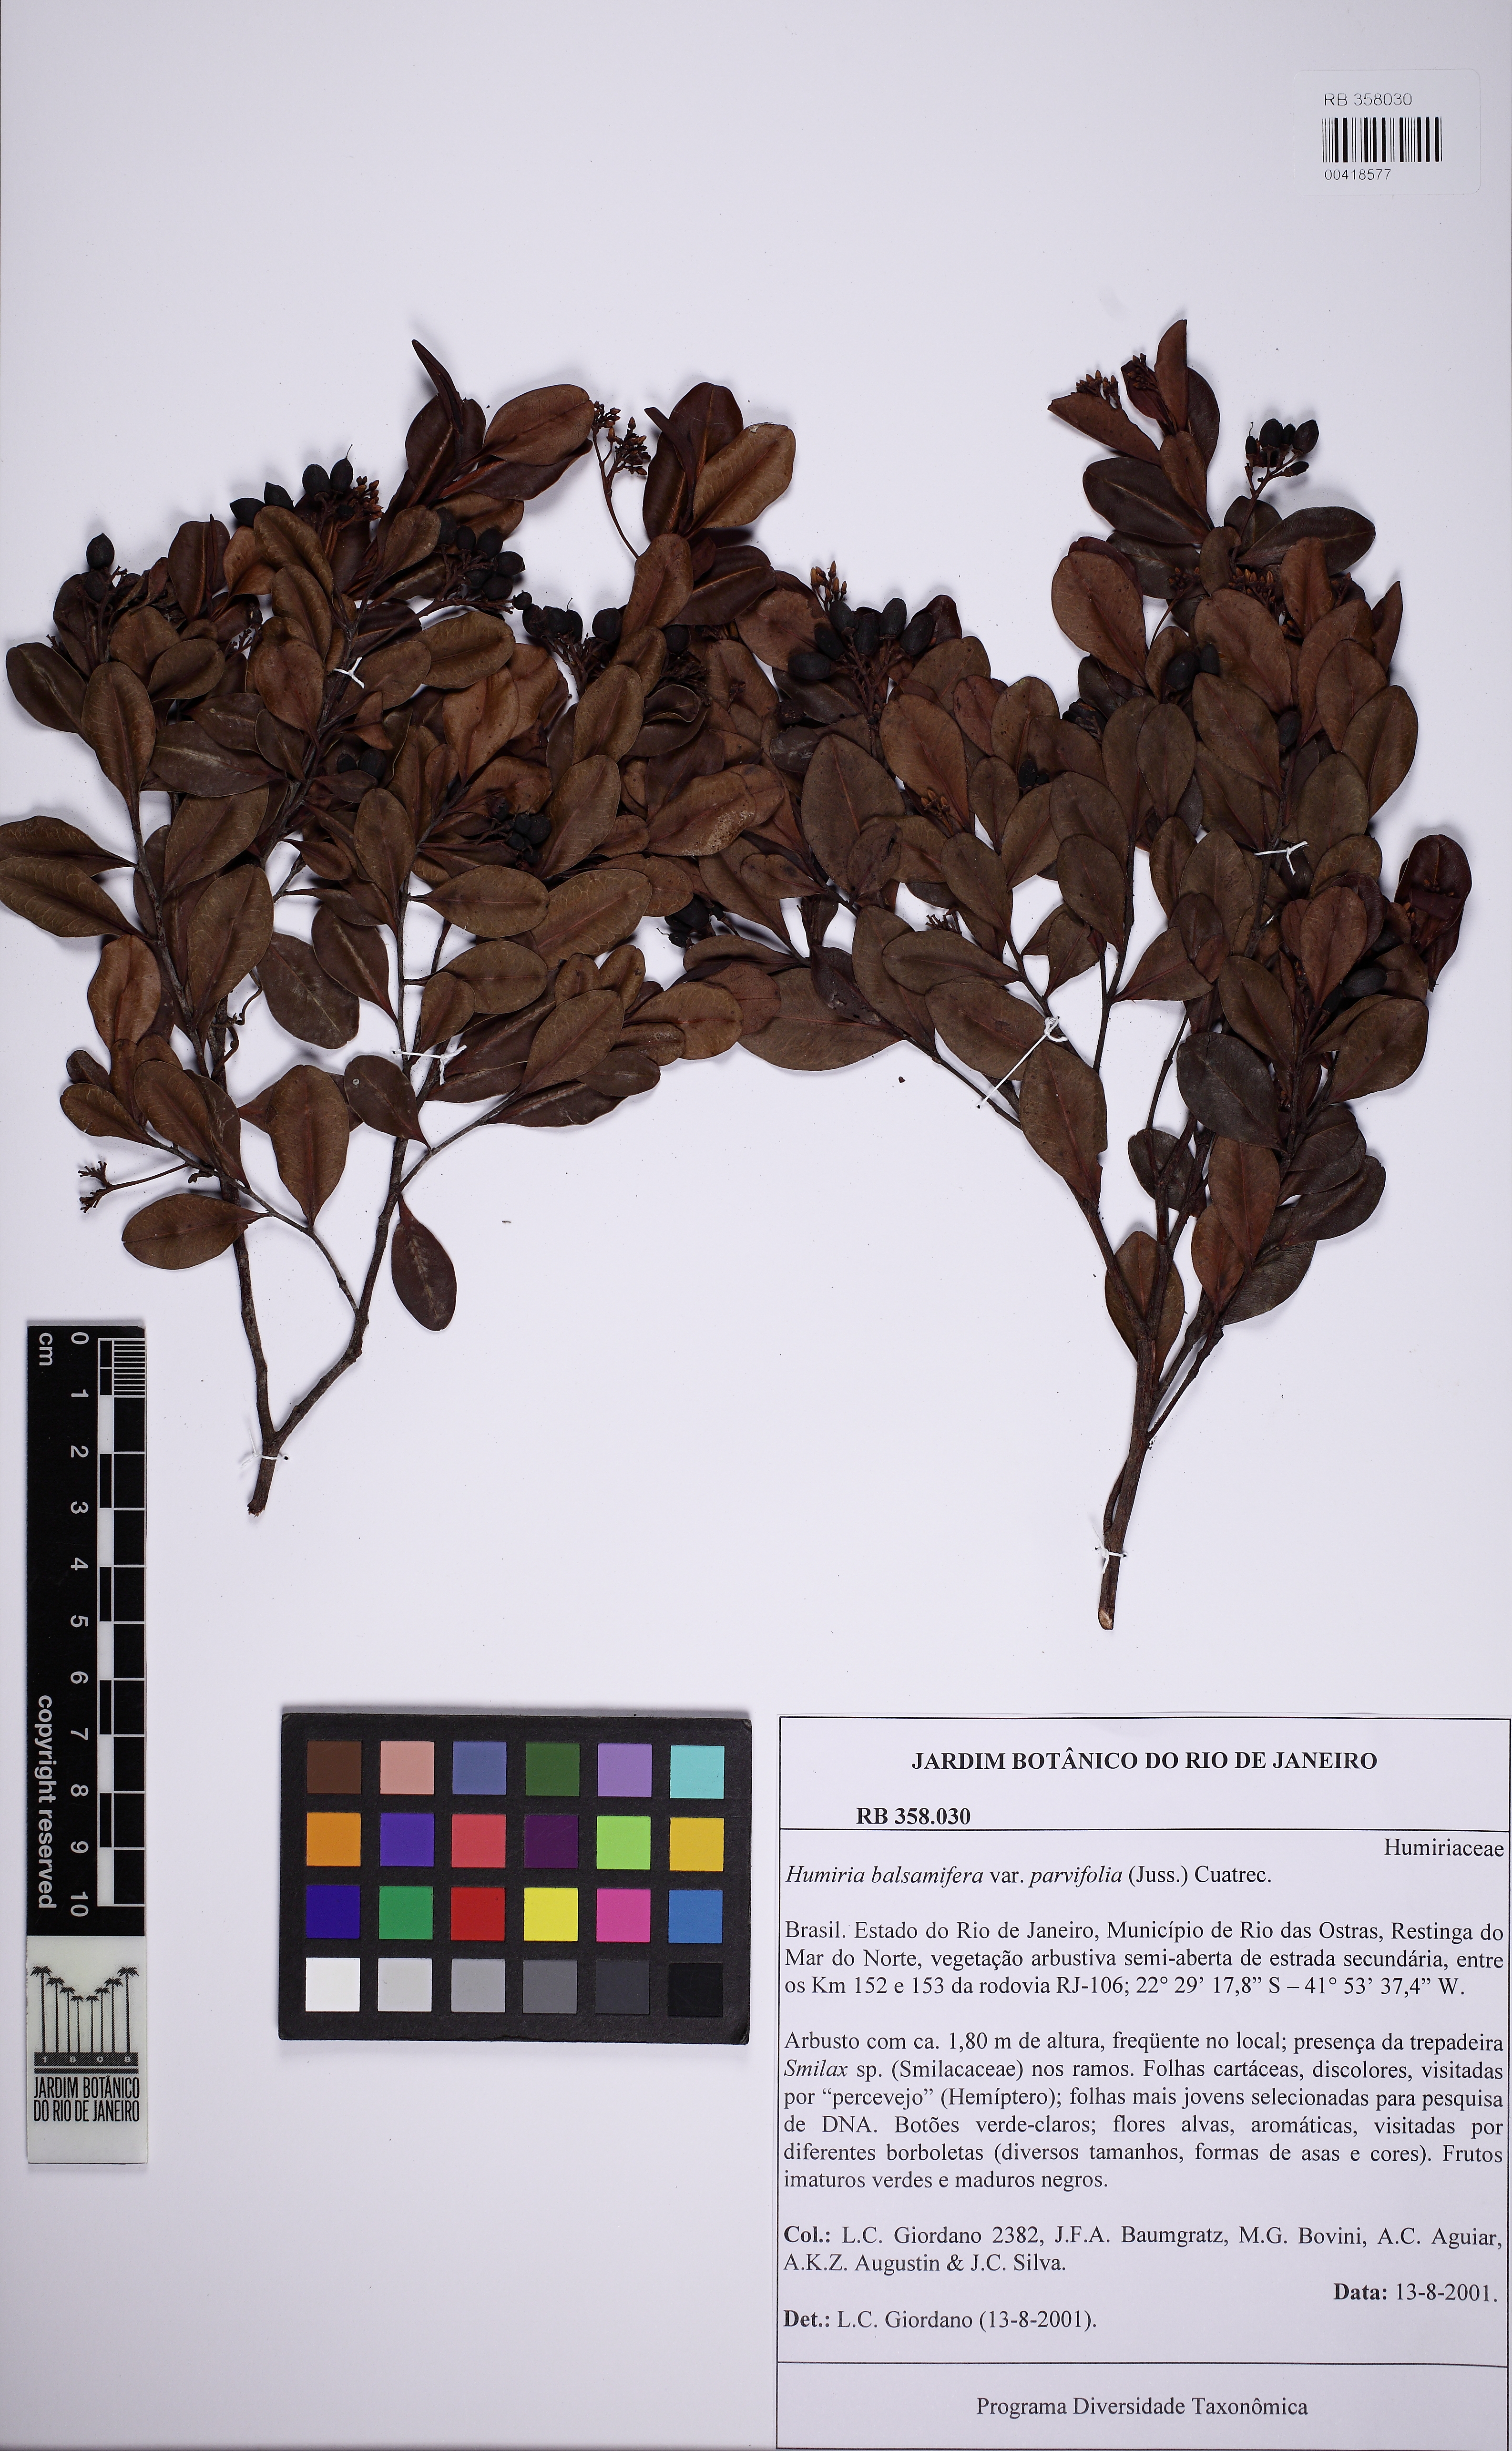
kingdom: Plantae
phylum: Tracheophyta
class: Magnoliopsida
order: Malpighiales
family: Humiriaceae
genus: Humiria
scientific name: Humiria parvifolia
